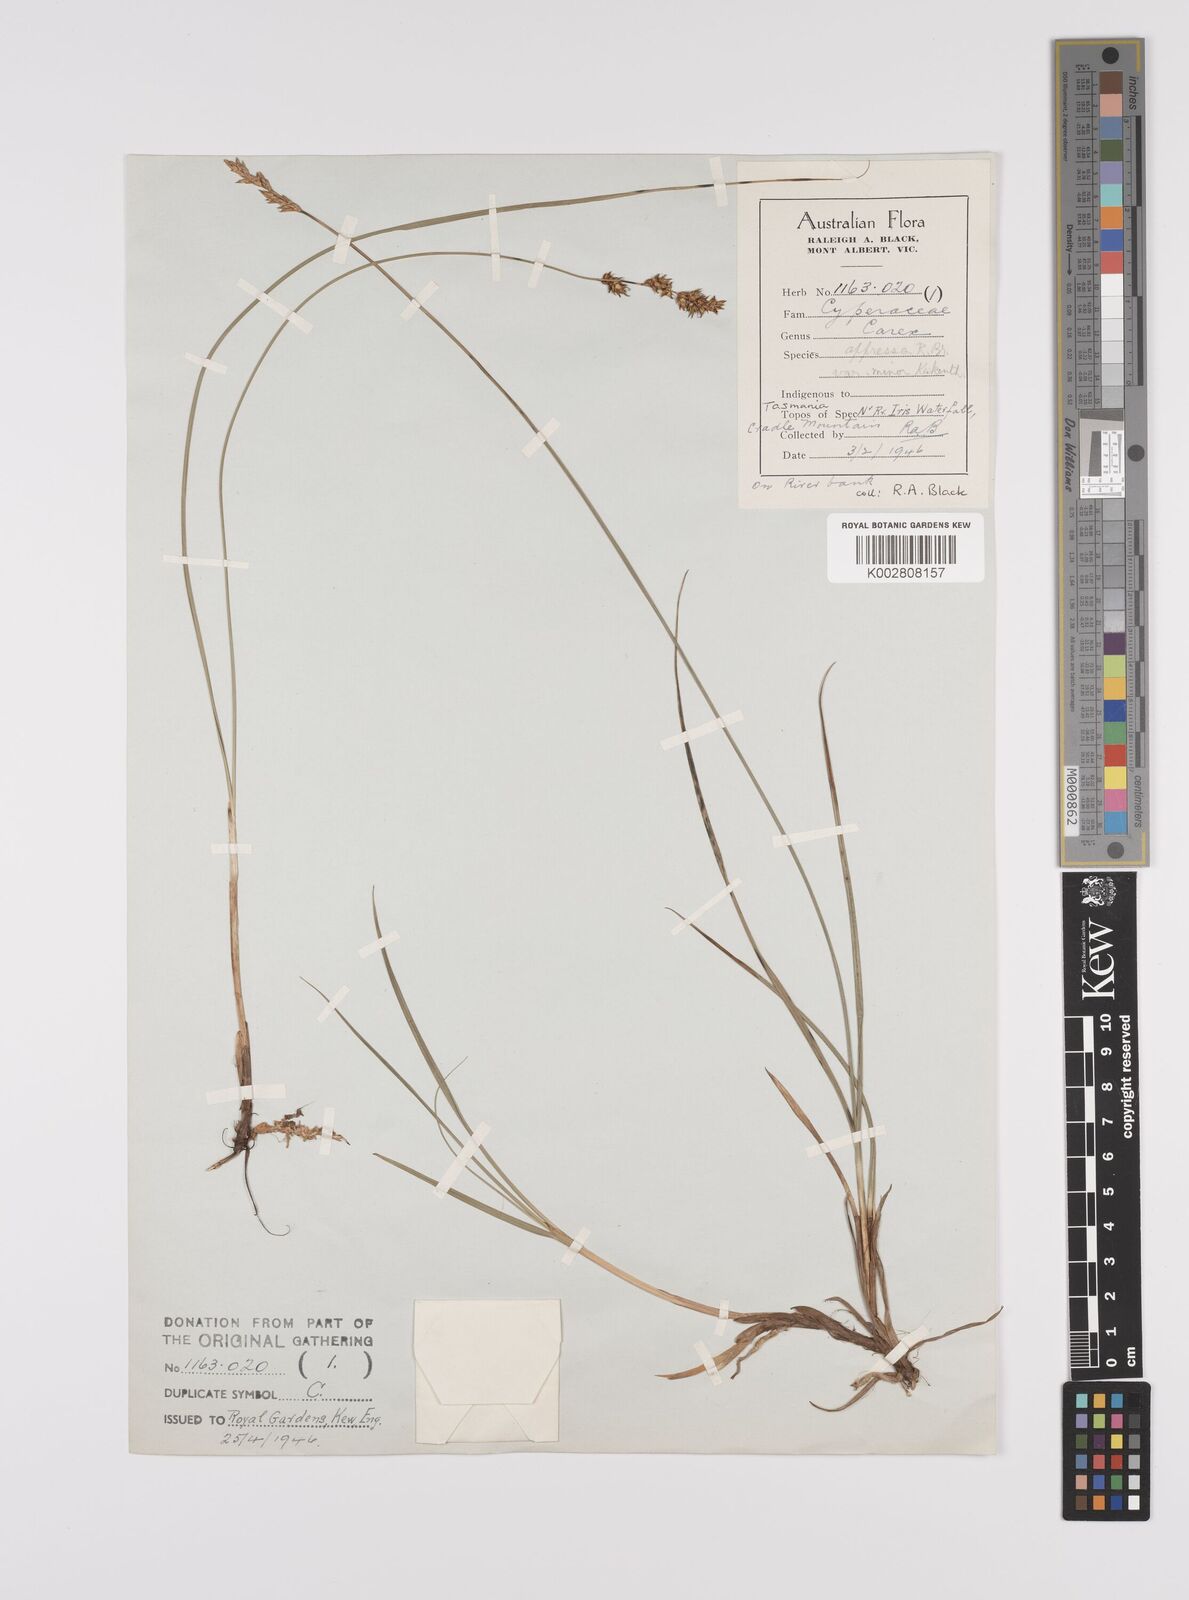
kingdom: Plantae
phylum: Tracheophyta
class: Liliopsida
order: Poales
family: Cyperaceae
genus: Carex
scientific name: Carex diandra
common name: Lesser tussock-sedge
